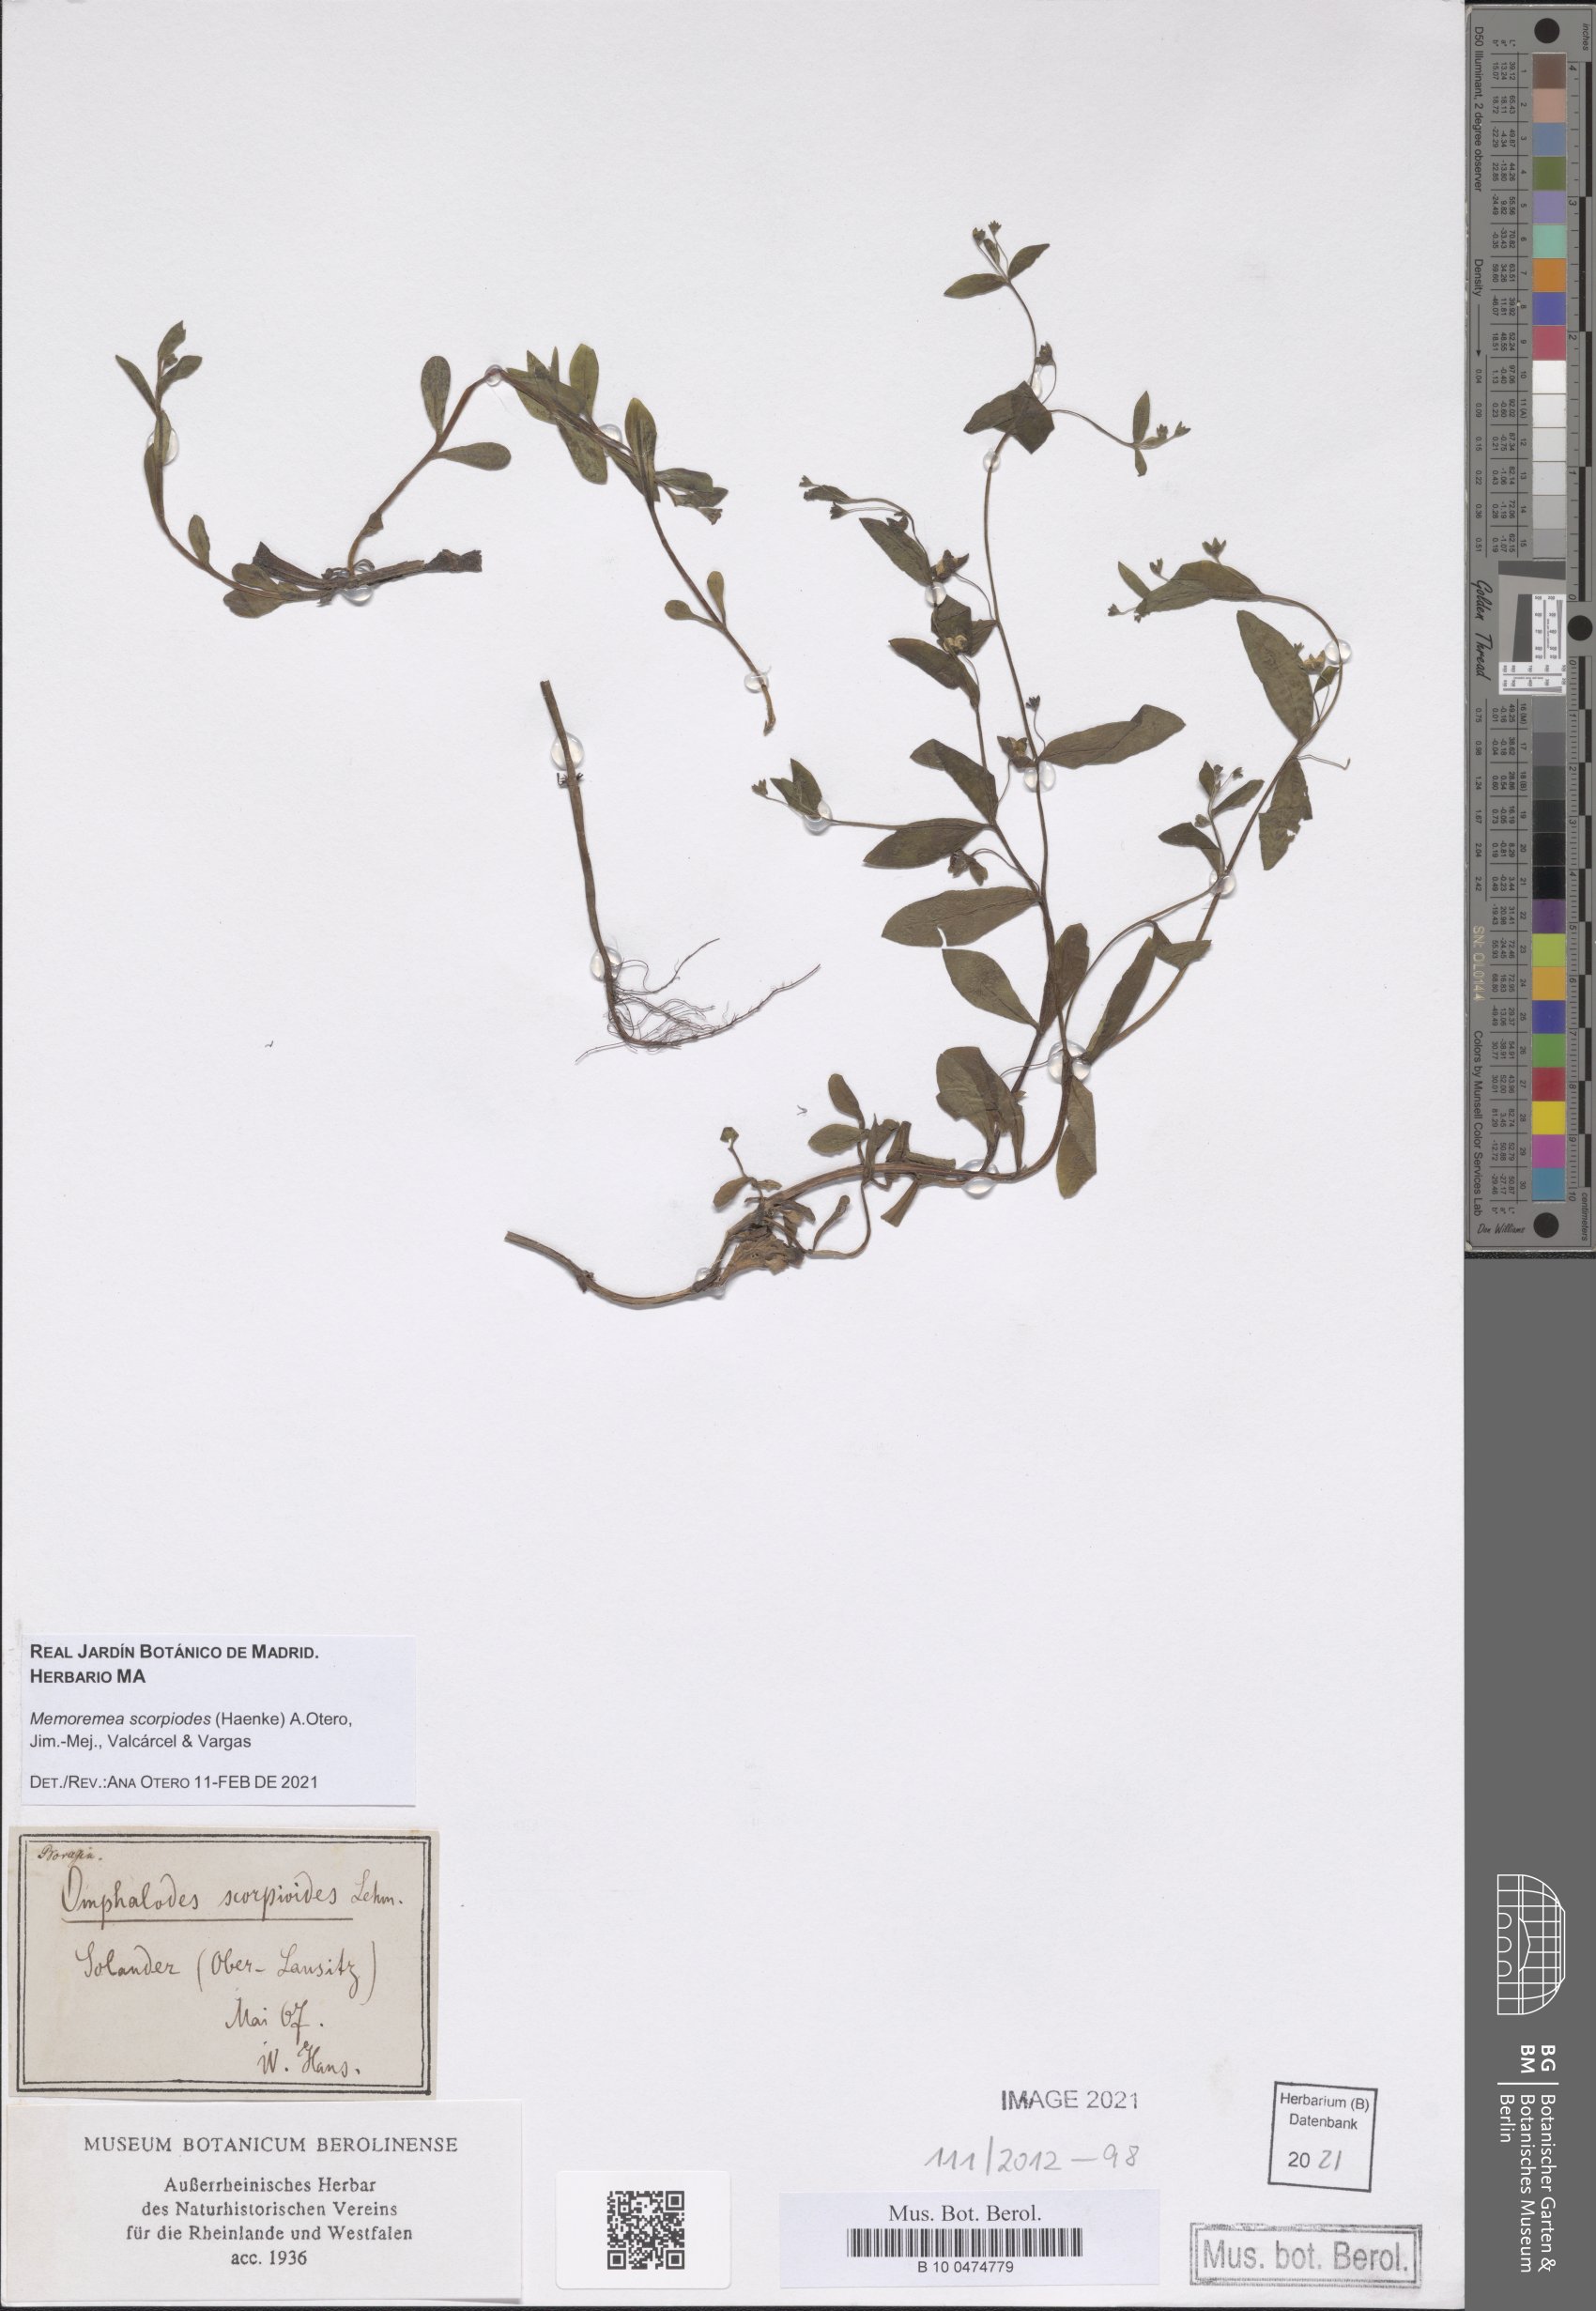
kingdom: Plantae
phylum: Tracheophyta
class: Magnoliopsida
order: Boraginales
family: Boraginaceae
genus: Memoremea
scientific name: Memoremea scorpioides
